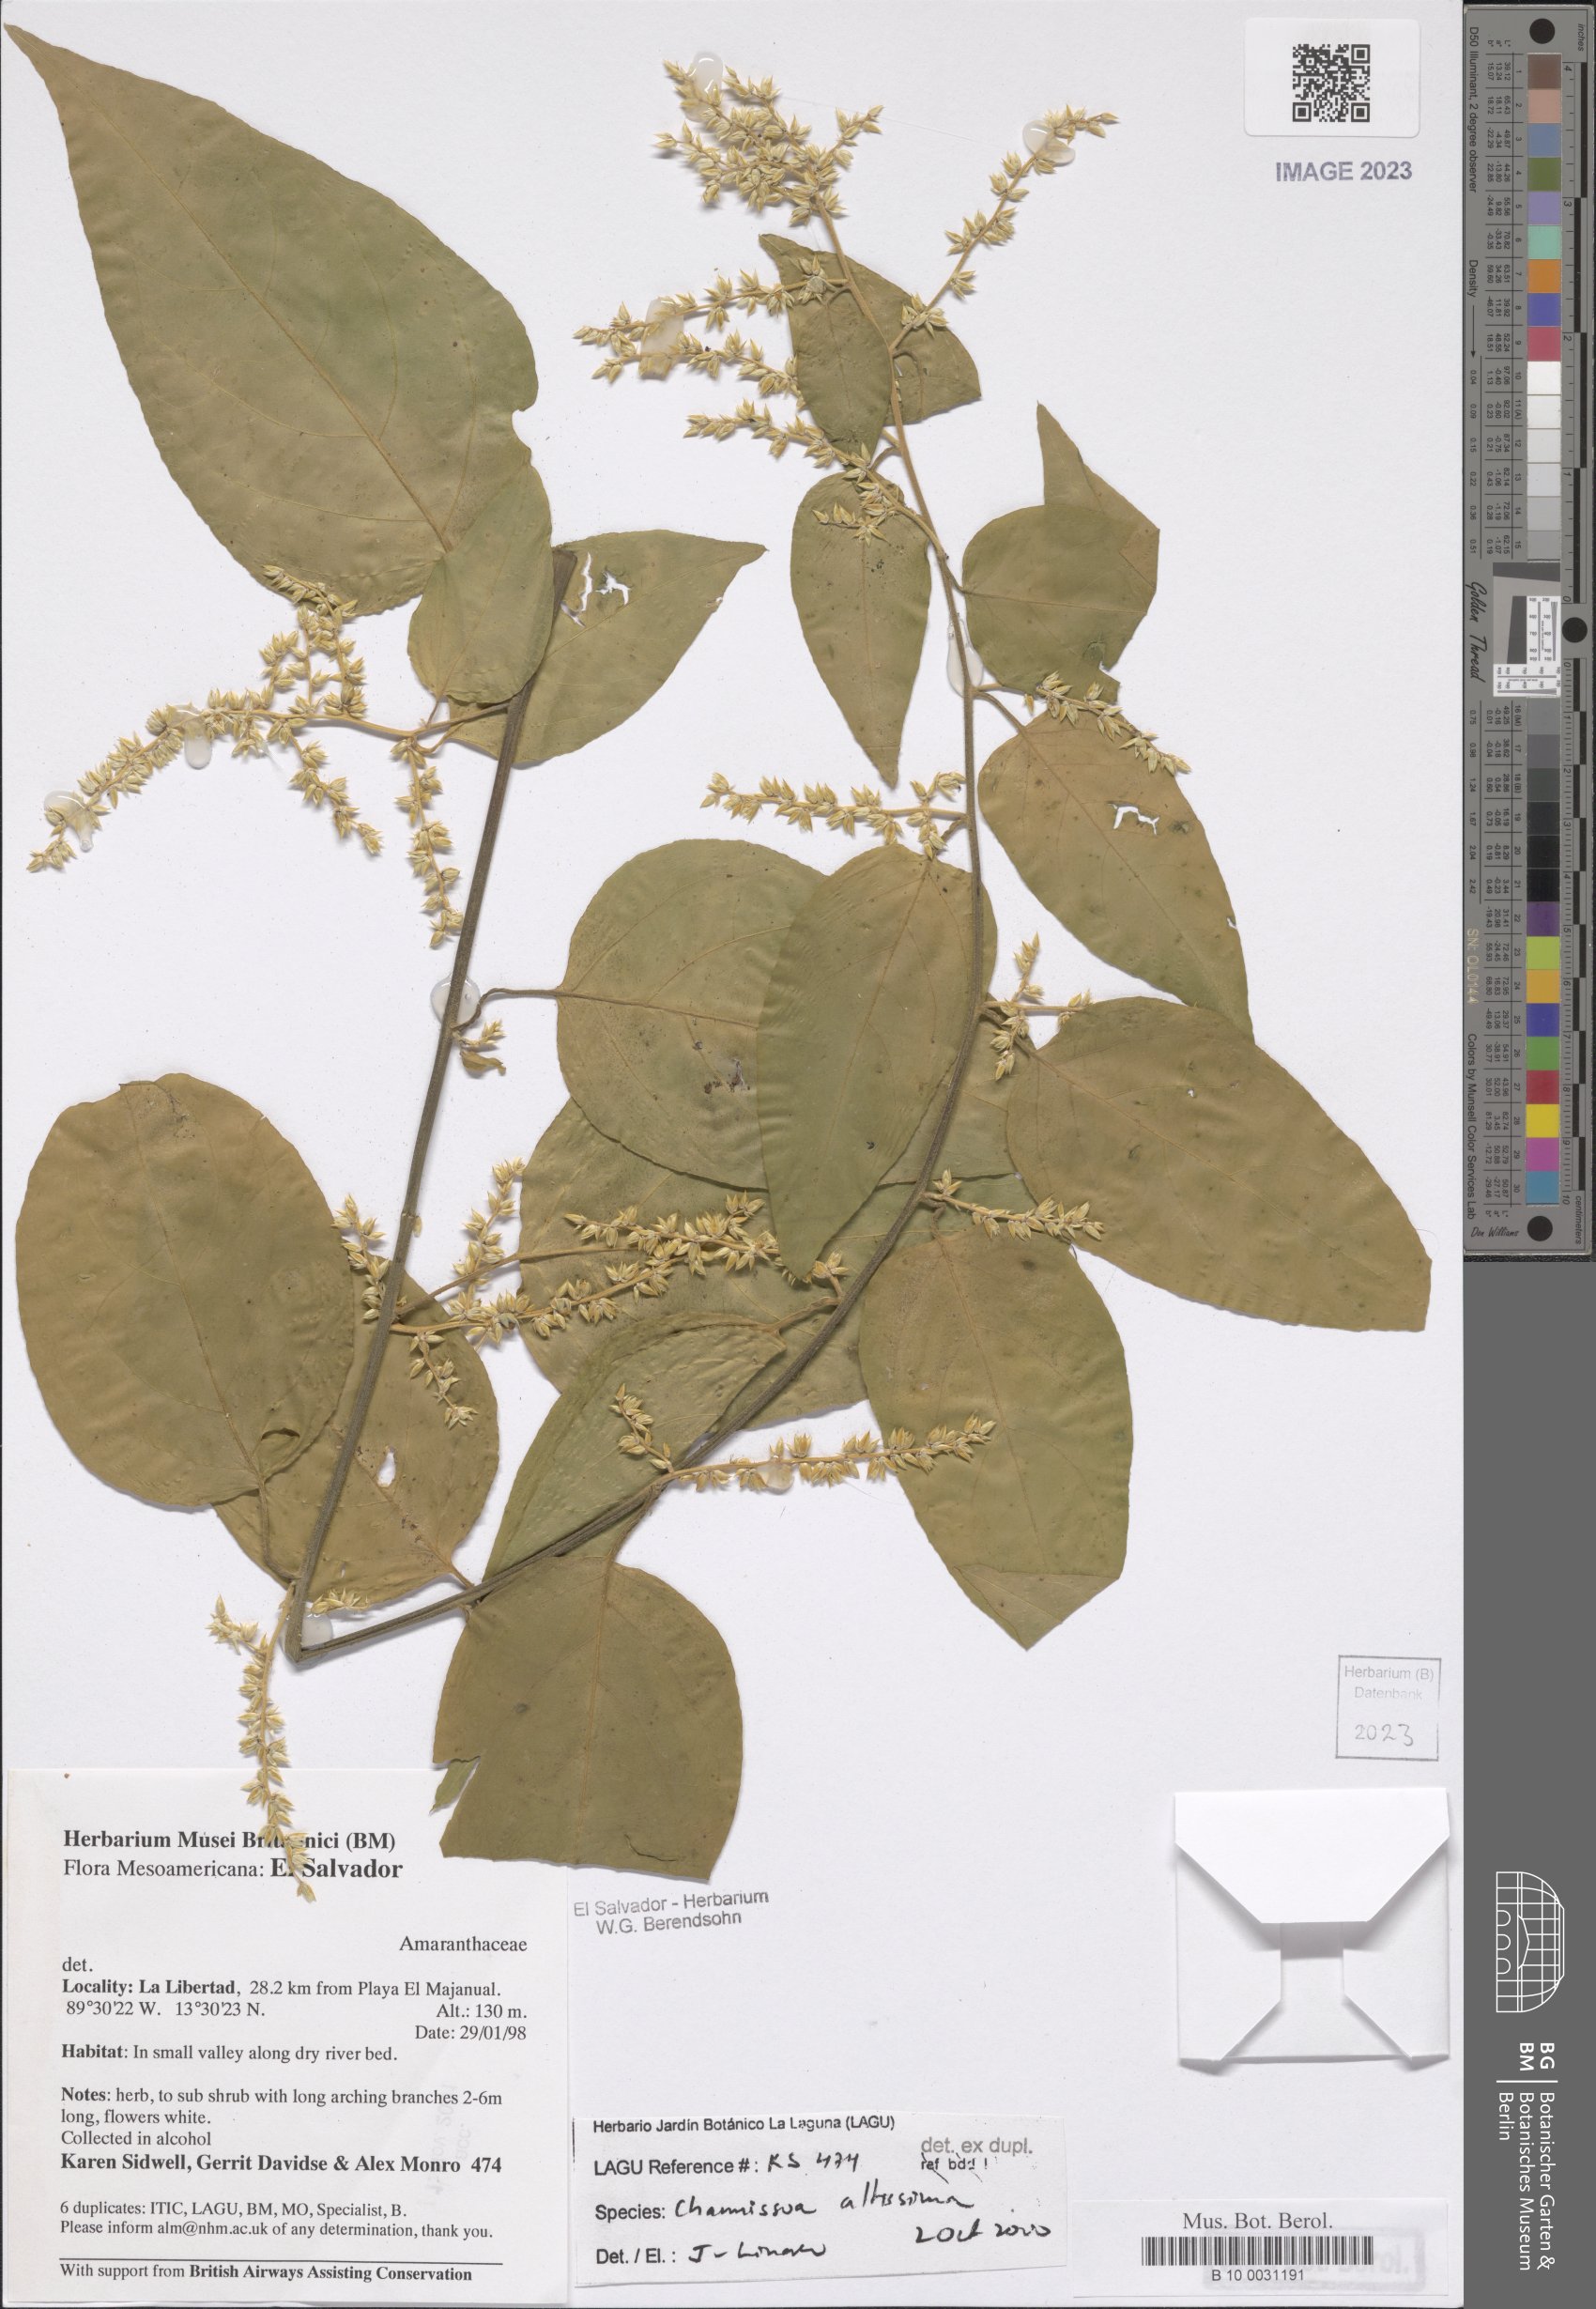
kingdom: Plantae
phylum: Tracheophyta
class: Magnoliopsida
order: Caryophyllales
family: Amaranthaceae
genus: Chamissoa
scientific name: Chamissoa altissima
